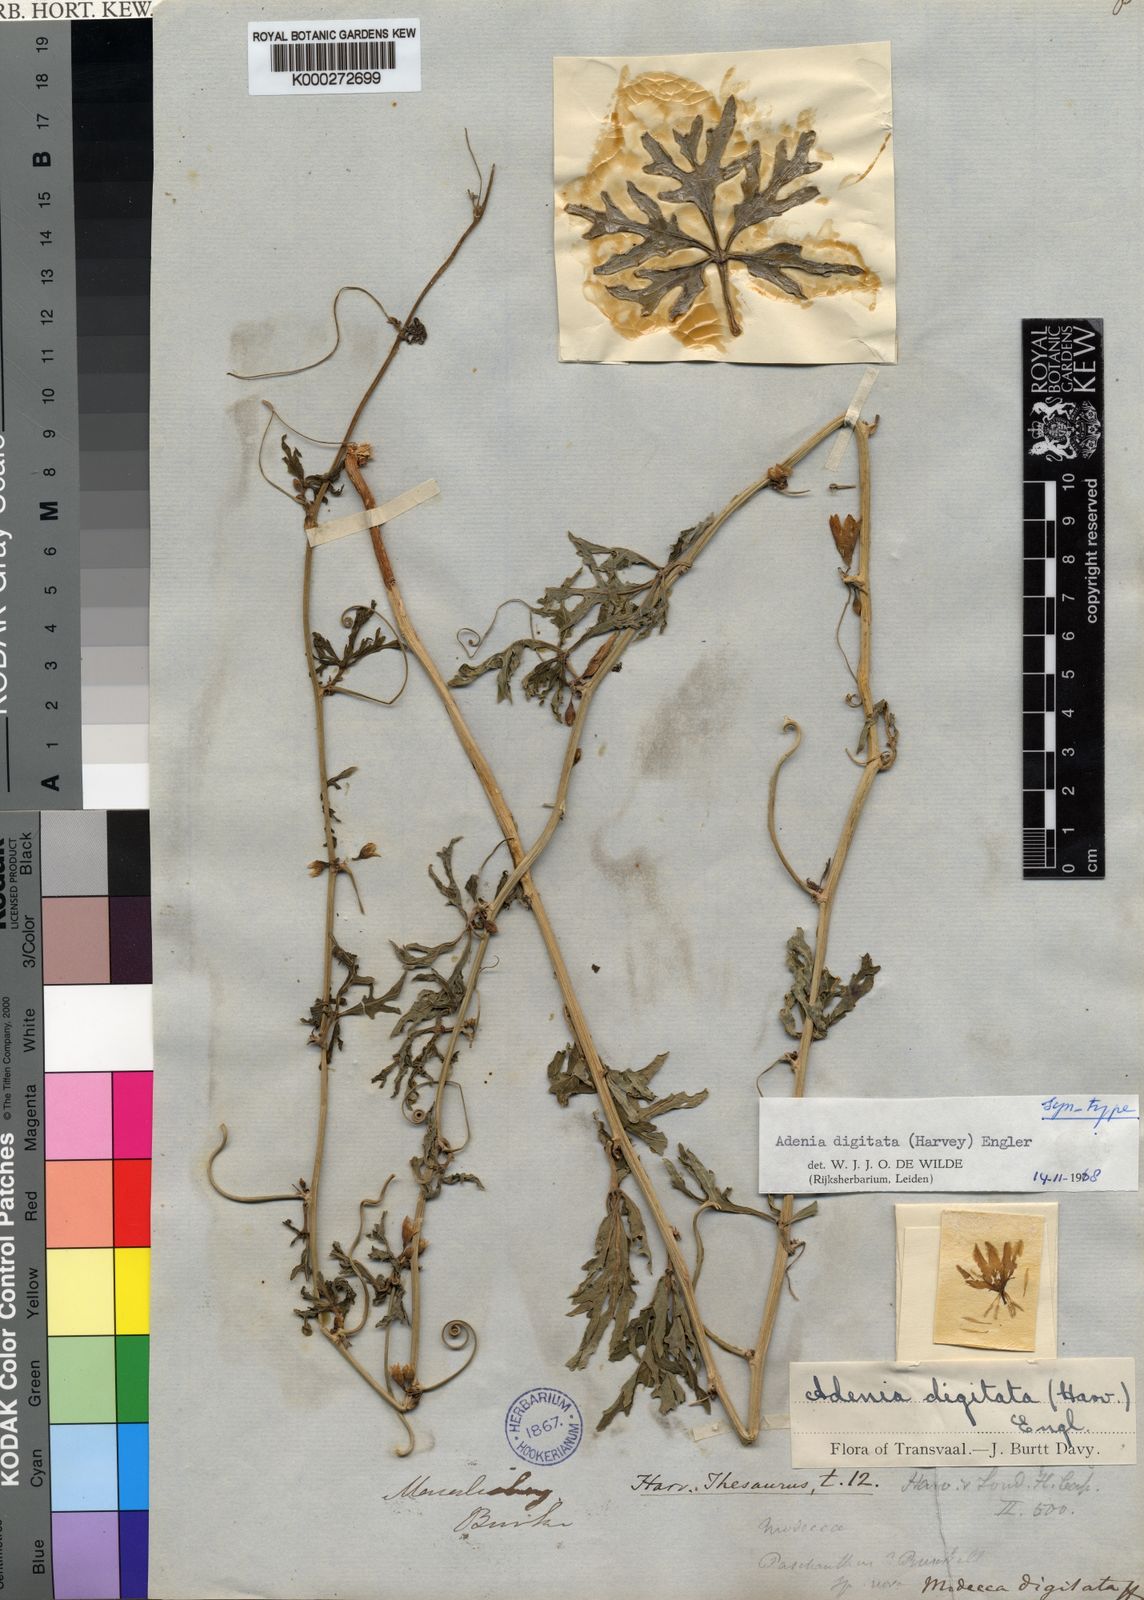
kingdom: Plantae
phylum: Tracheophyta
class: Magnoliopsida
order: Malpighiales
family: Passifloraceae
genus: Adenia
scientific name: Adenia digitata
